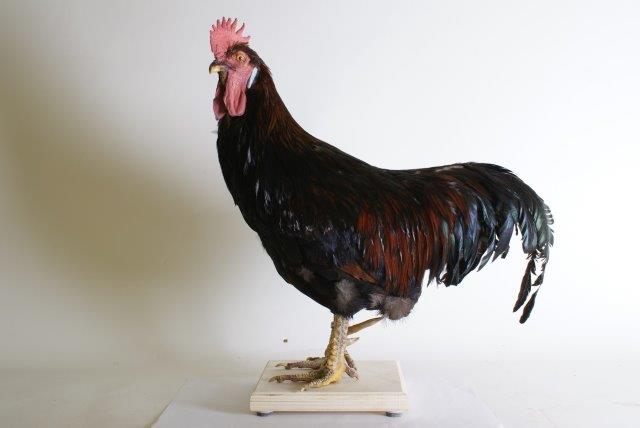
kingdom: Animalia
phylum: Chordata
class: Aves
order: Galliformes
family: Phasianidae
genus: Gallus
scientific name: Gallus gallus
